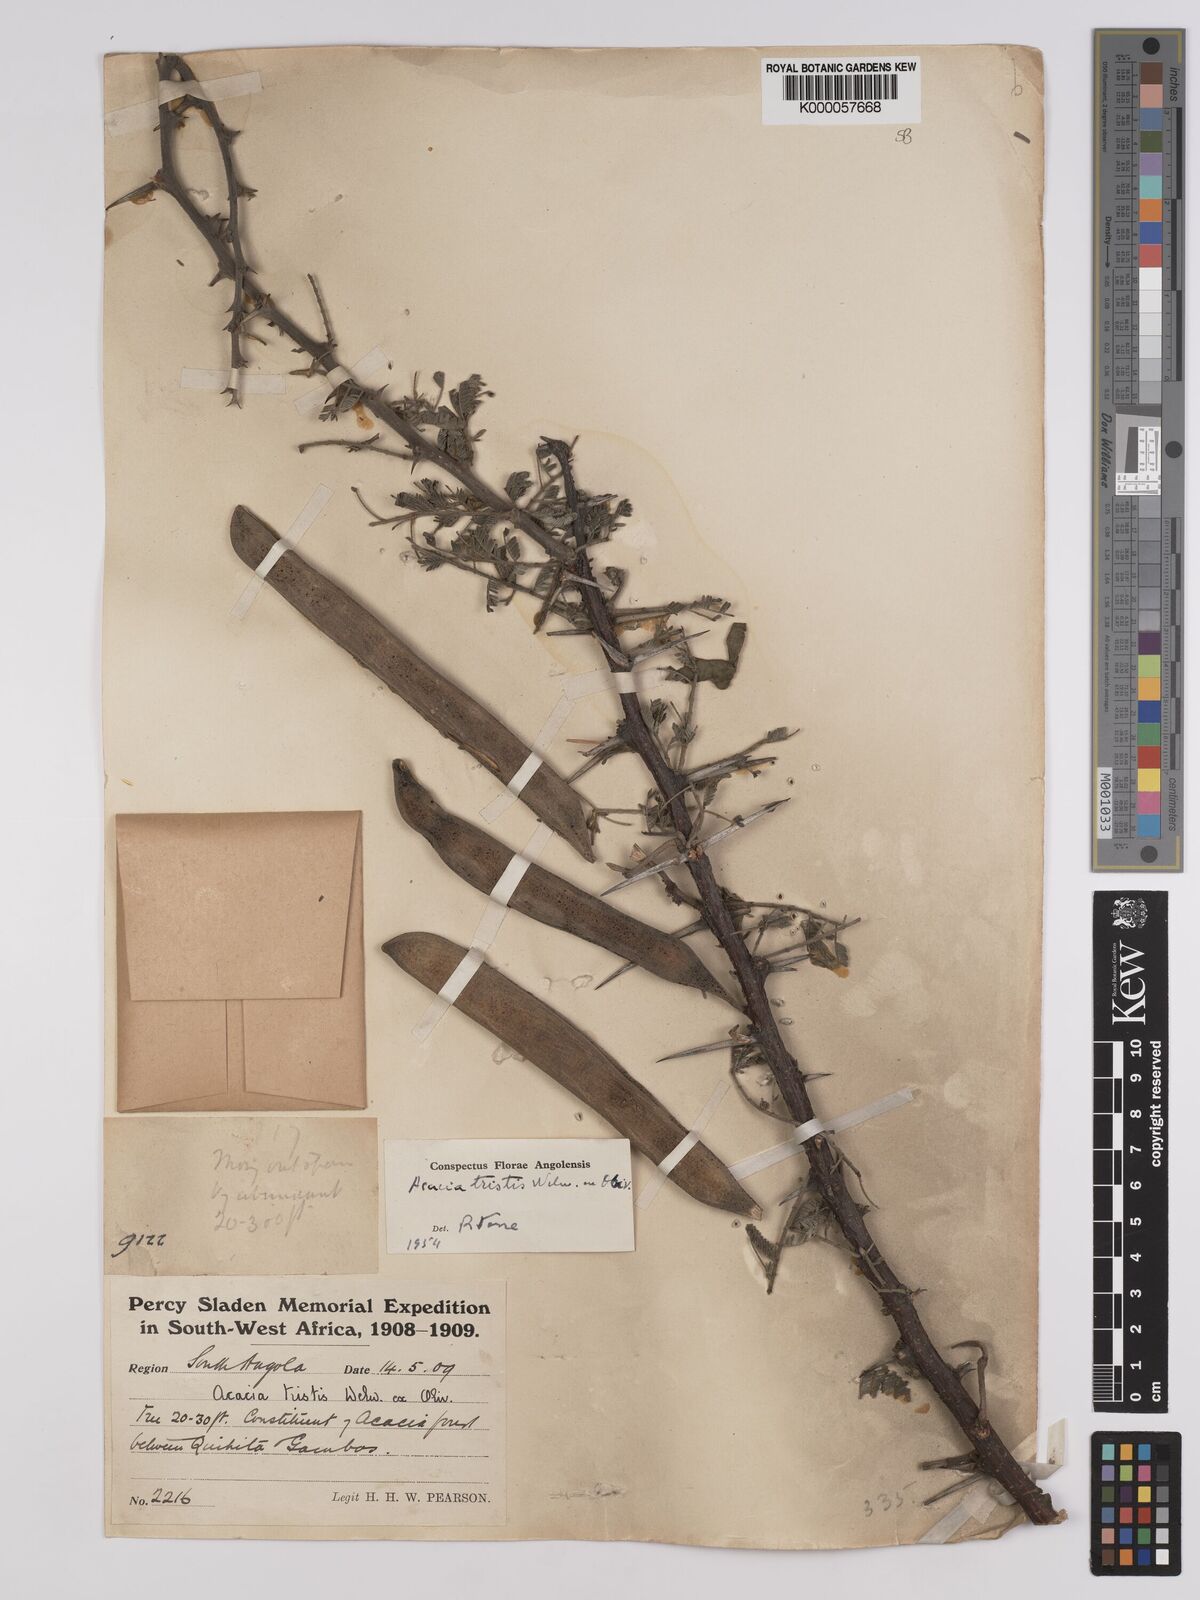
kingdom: Plantae
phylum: Tracheophyta
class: Magnoliopsida
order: Fabales
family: Fabaceae
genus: Vachellia
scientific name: Vachellia hebeclada
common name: Candle thorn
